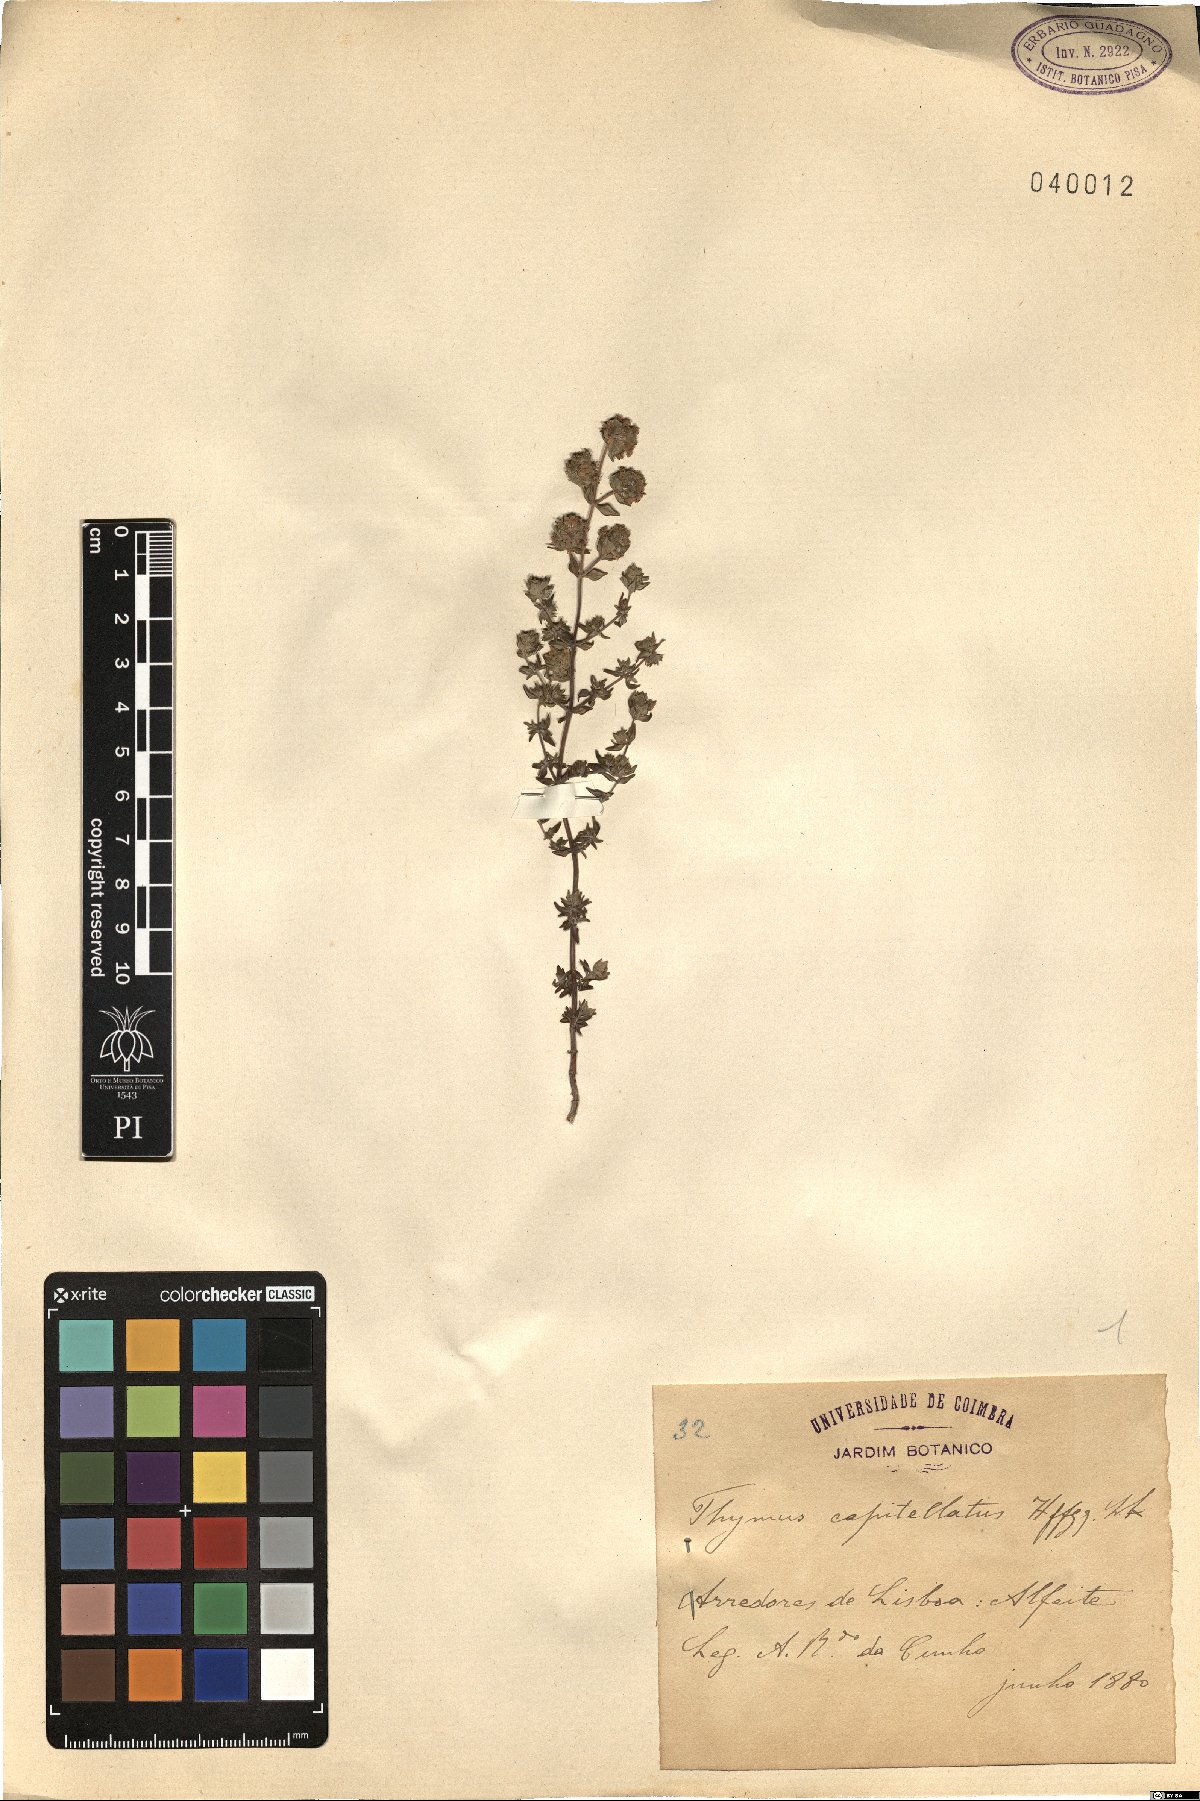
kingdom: Plantae
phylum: Tracheophyta
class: Magnoliopsida
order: Lamiales
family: Lamiaceae
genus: Thymus
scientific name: Thymus capitellatus
